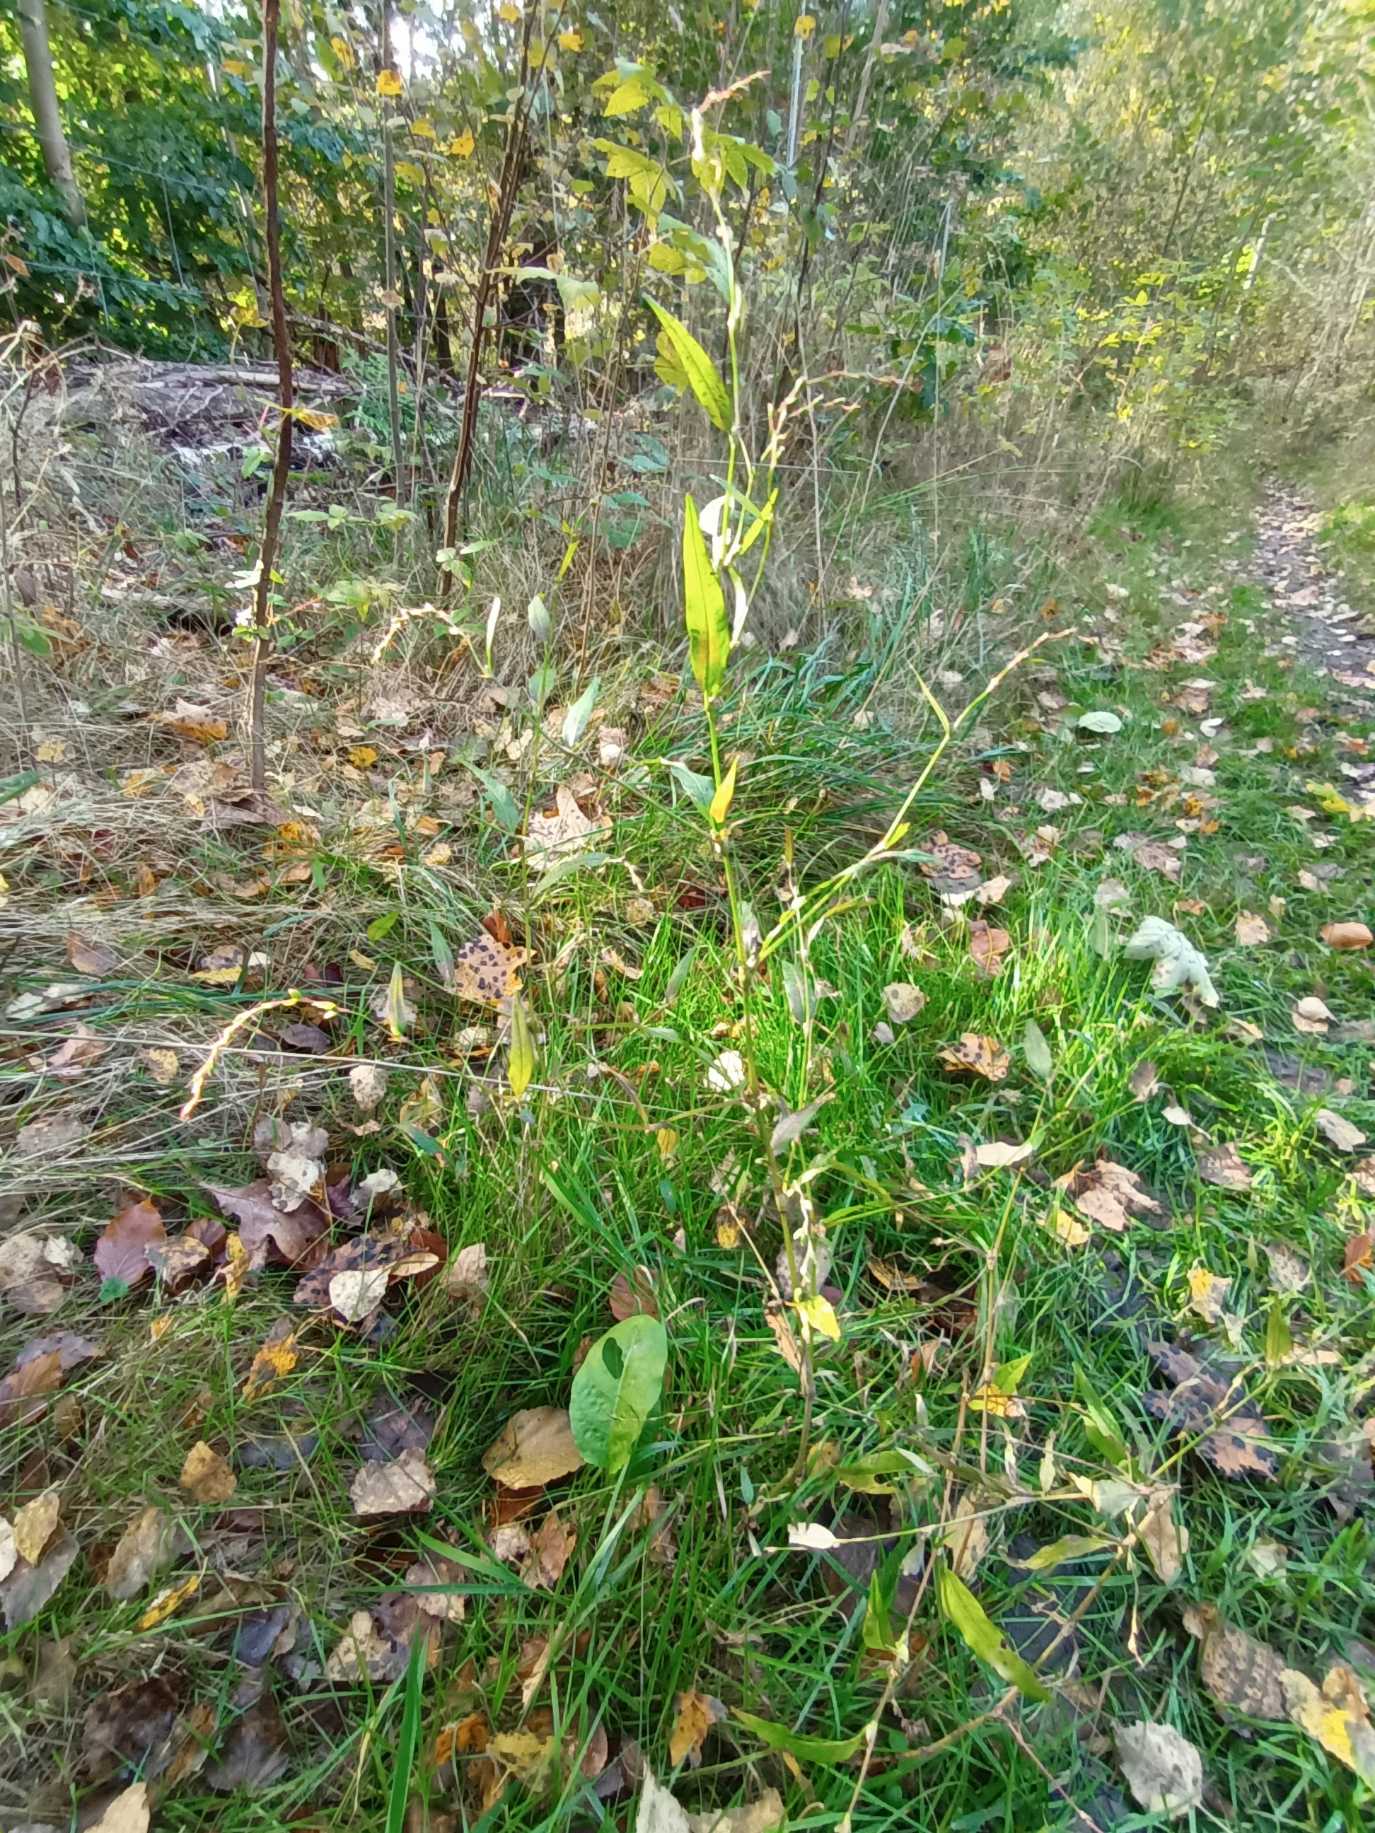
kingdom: Plantae
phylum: Tracheophyta
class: Magnoliopsida
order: Caryophyllales
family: Polygonaceae
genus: Persicaria
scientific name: Persicaria hydropiper
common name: Bidende pileurt
